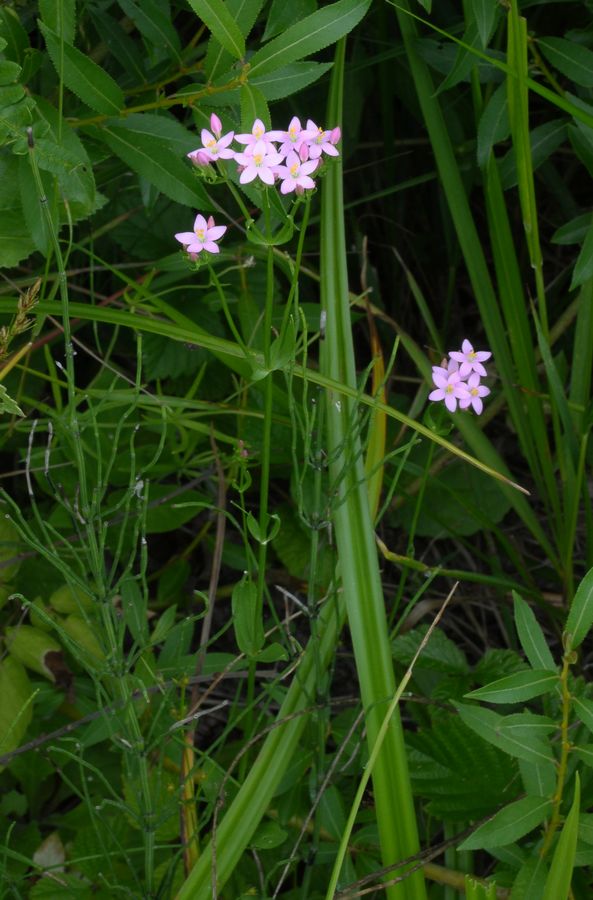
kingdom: Plantae
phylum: Tracheophyta
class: Magnoliopsida
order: Gentianales
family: Gentianaceae
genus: Centaurium
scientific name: Centaurium erythraea
